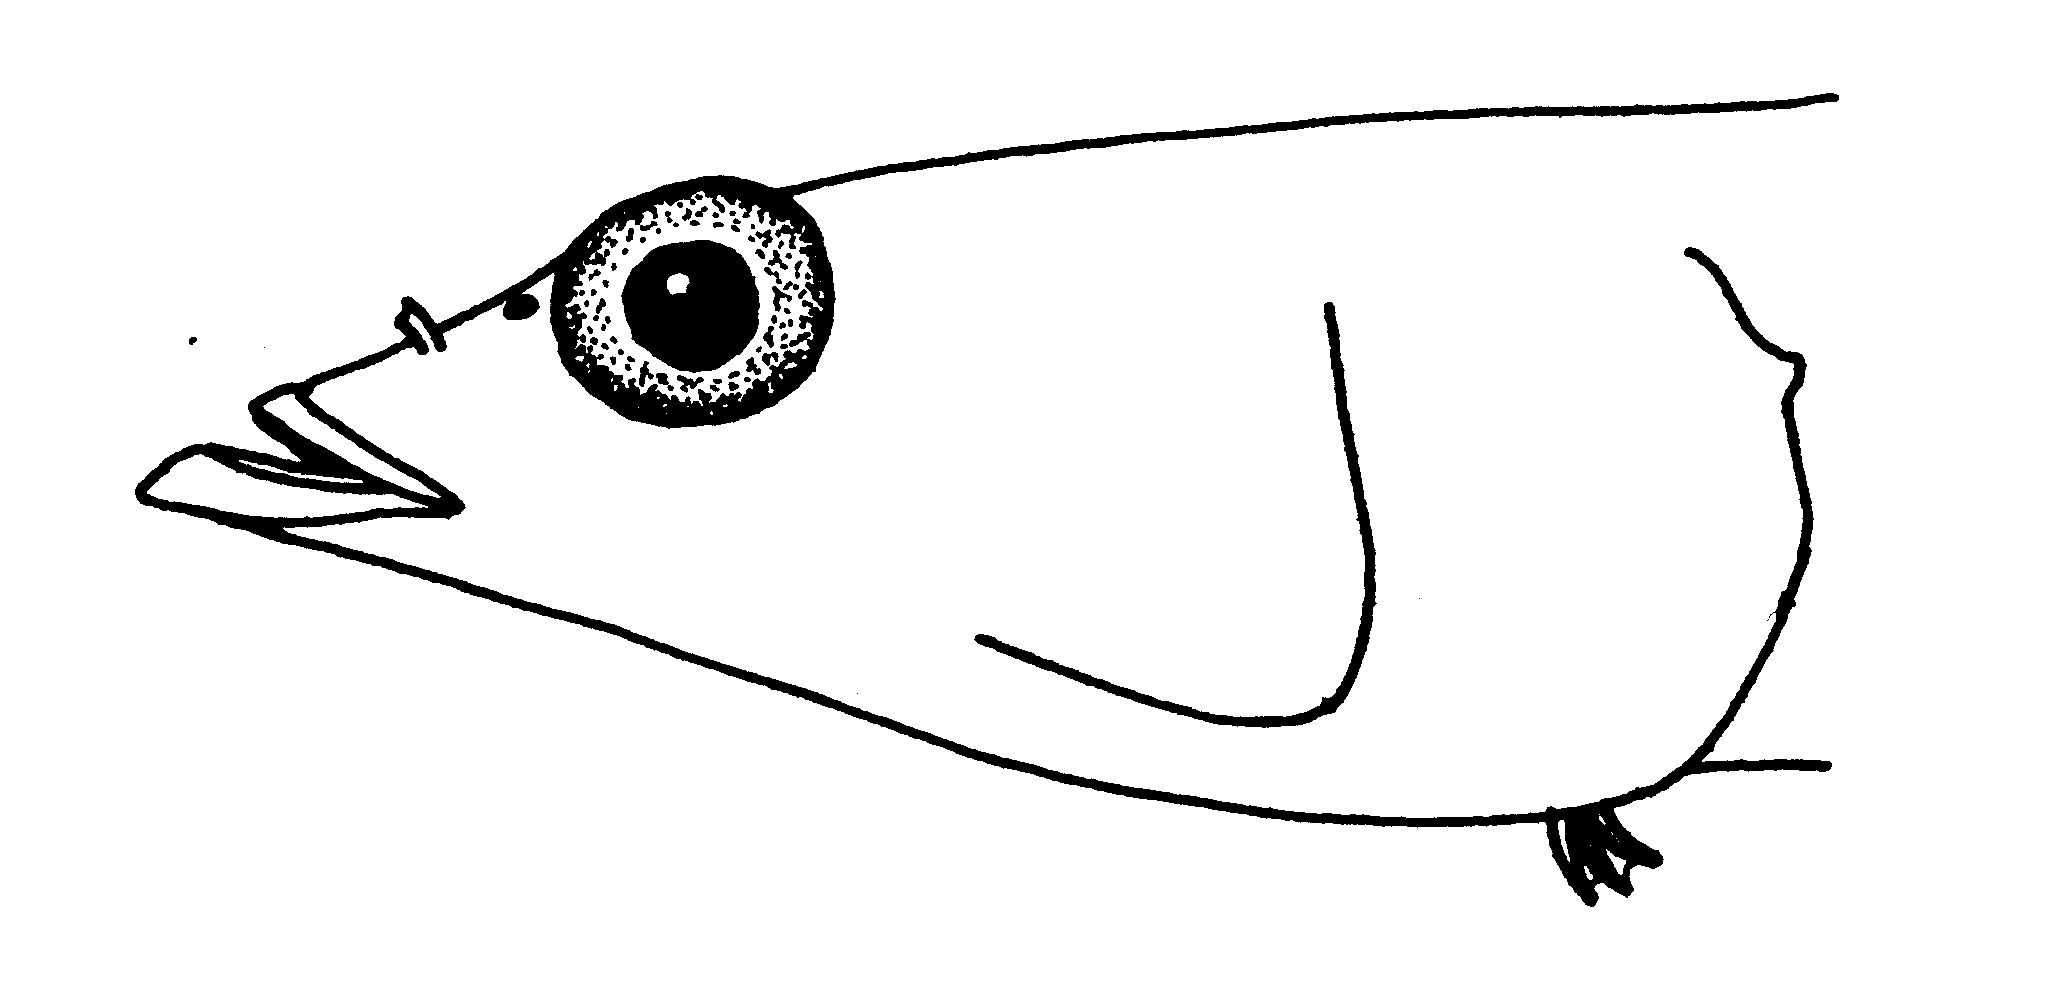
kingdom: Animalia
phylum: Chordata
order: Perciformes
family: Clinidae
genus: Cancelloxus
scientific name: Cancelloxus longior
